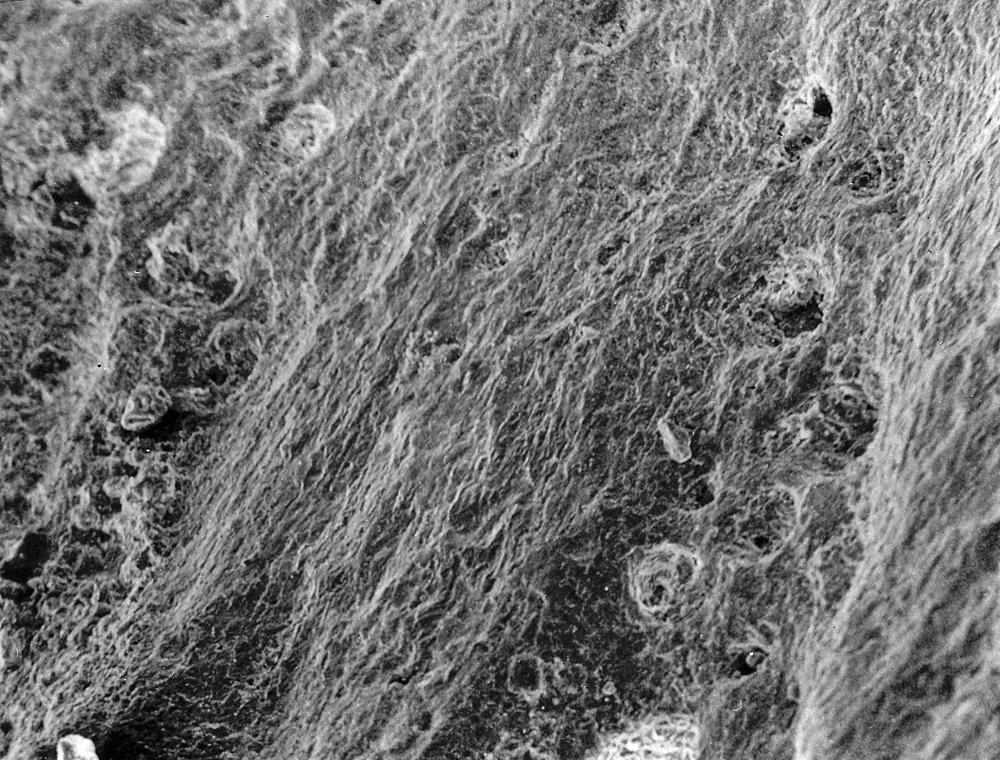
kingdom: Animalia
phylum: Brachiopoda
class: Rhynchonellata
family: Dalmanellidae
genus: Paucicrura
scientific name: Paucicrura Onniella navicula
